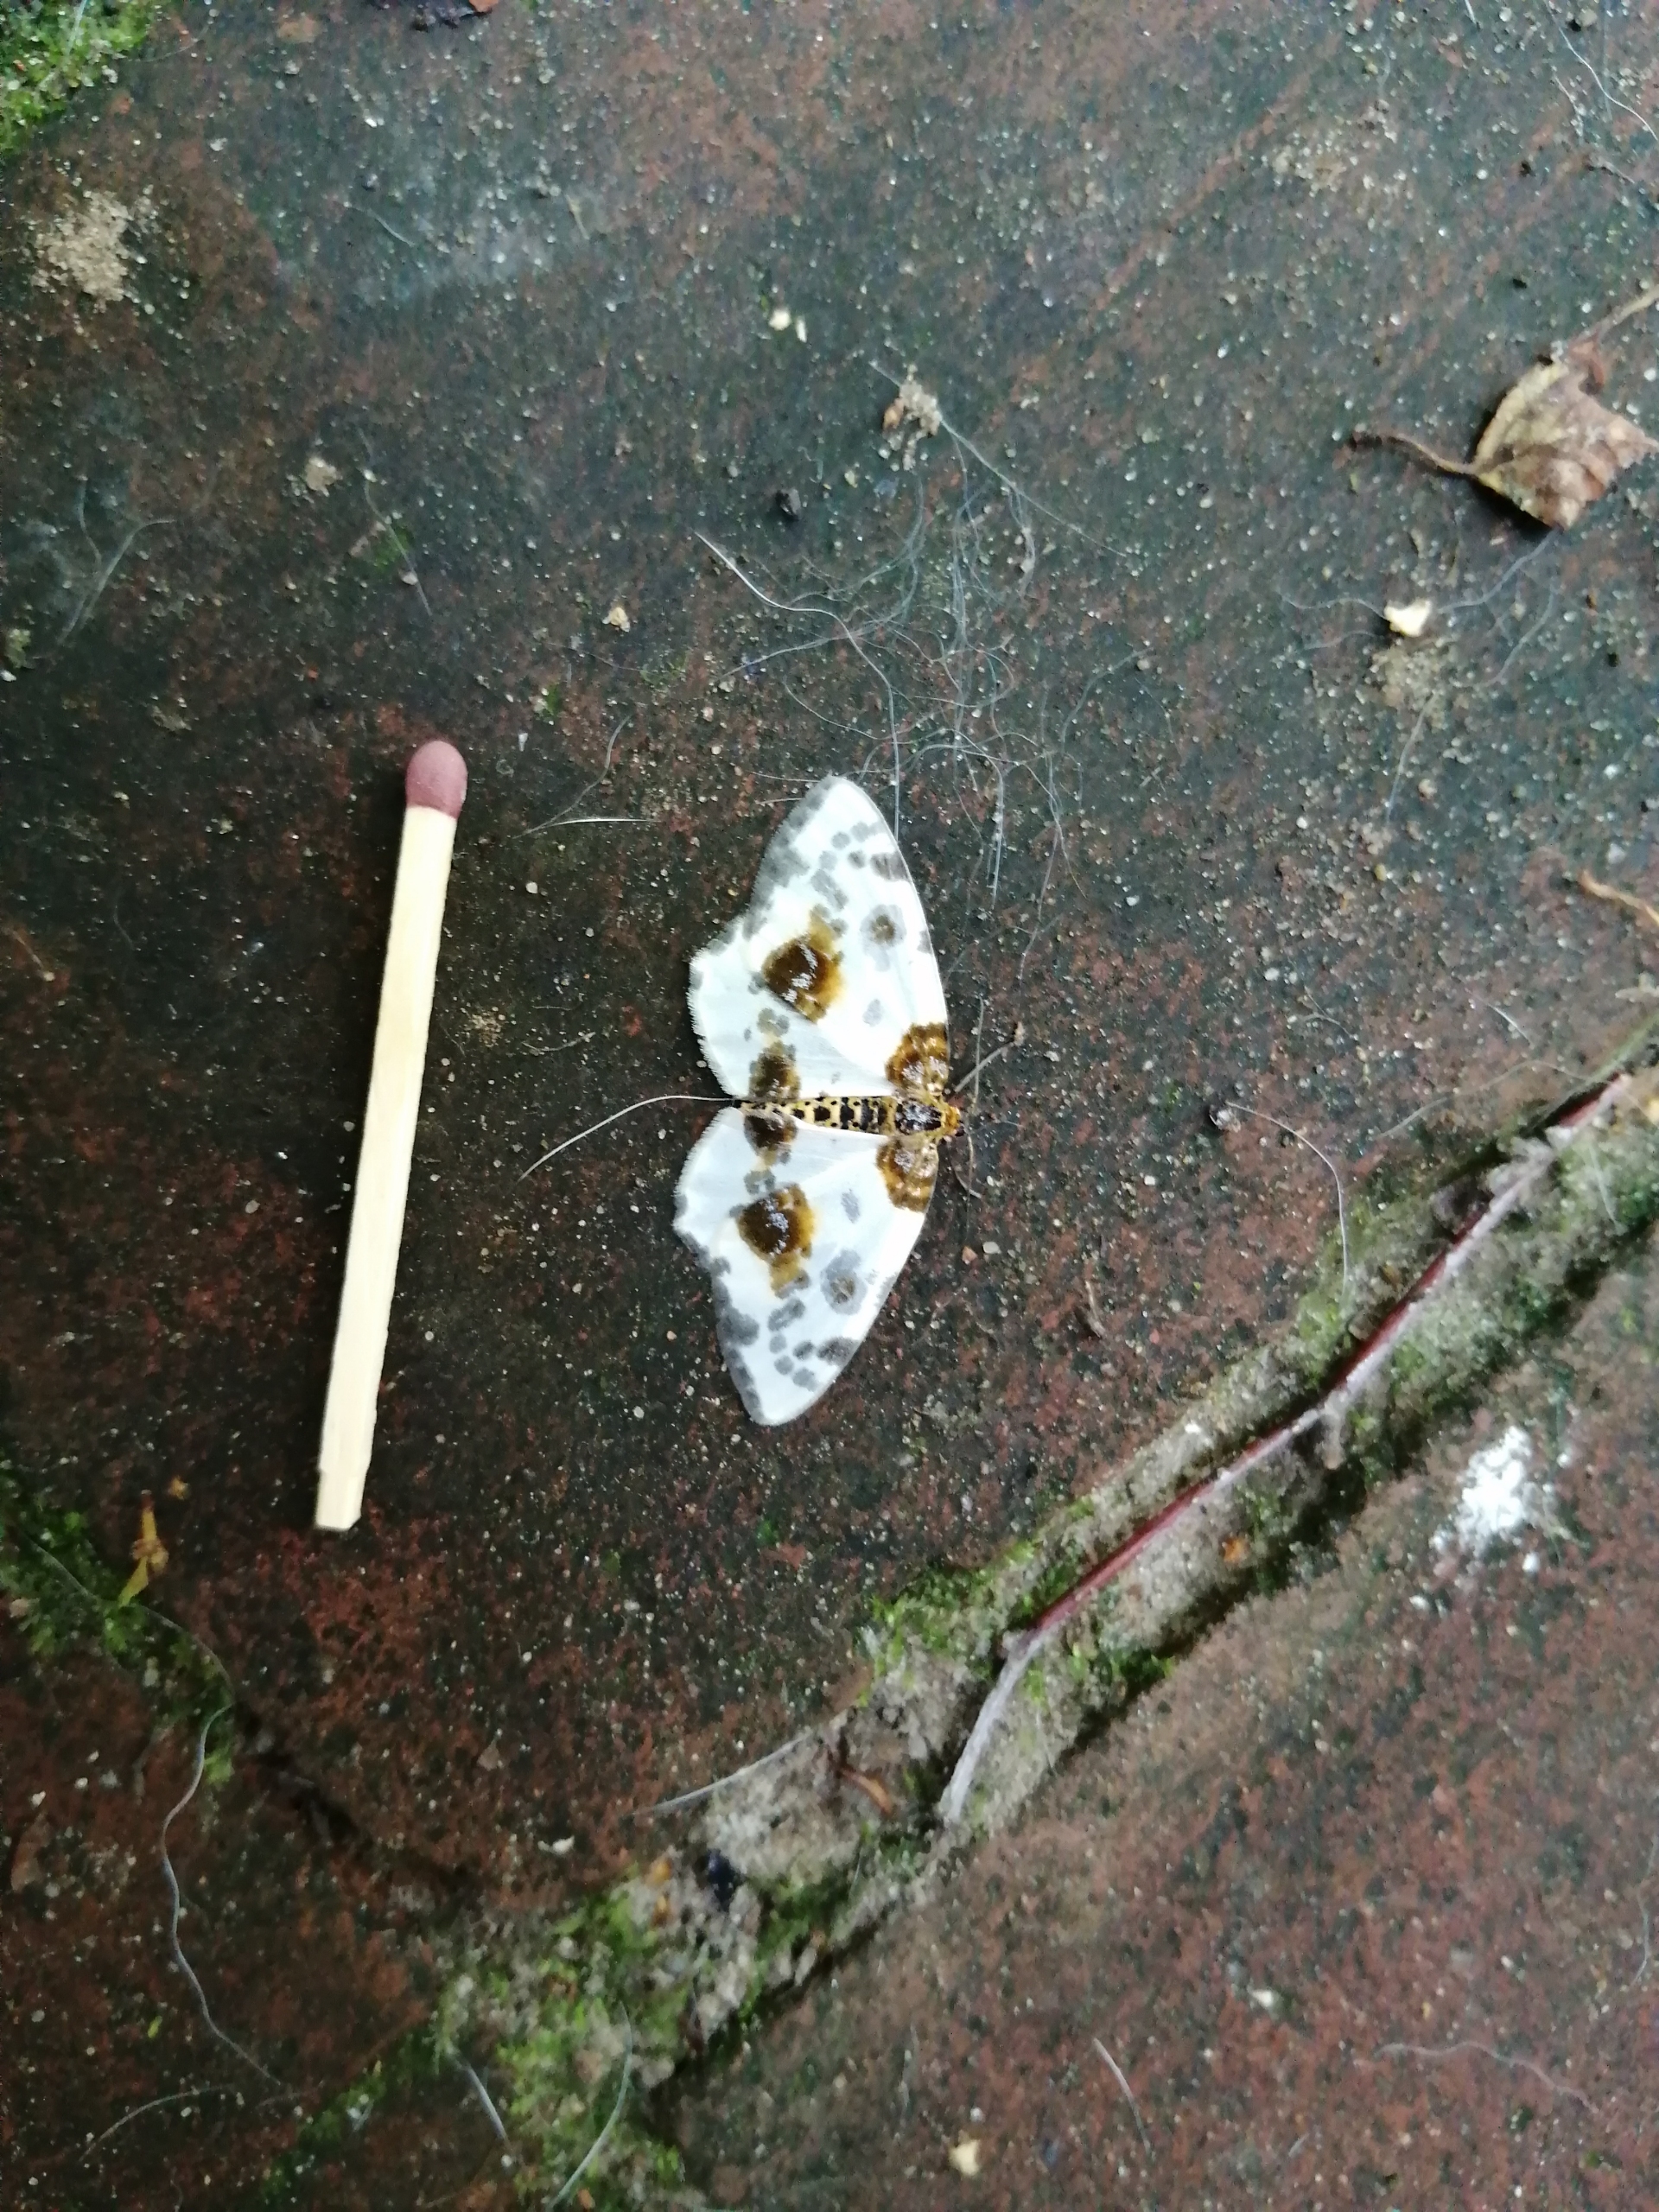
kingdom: Animalia
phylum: Arthropoda
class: Insecta
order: Lepidoptera
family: Geometridae
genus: Abraxas
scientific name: Abraxas sylvata
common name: Elmemåler
